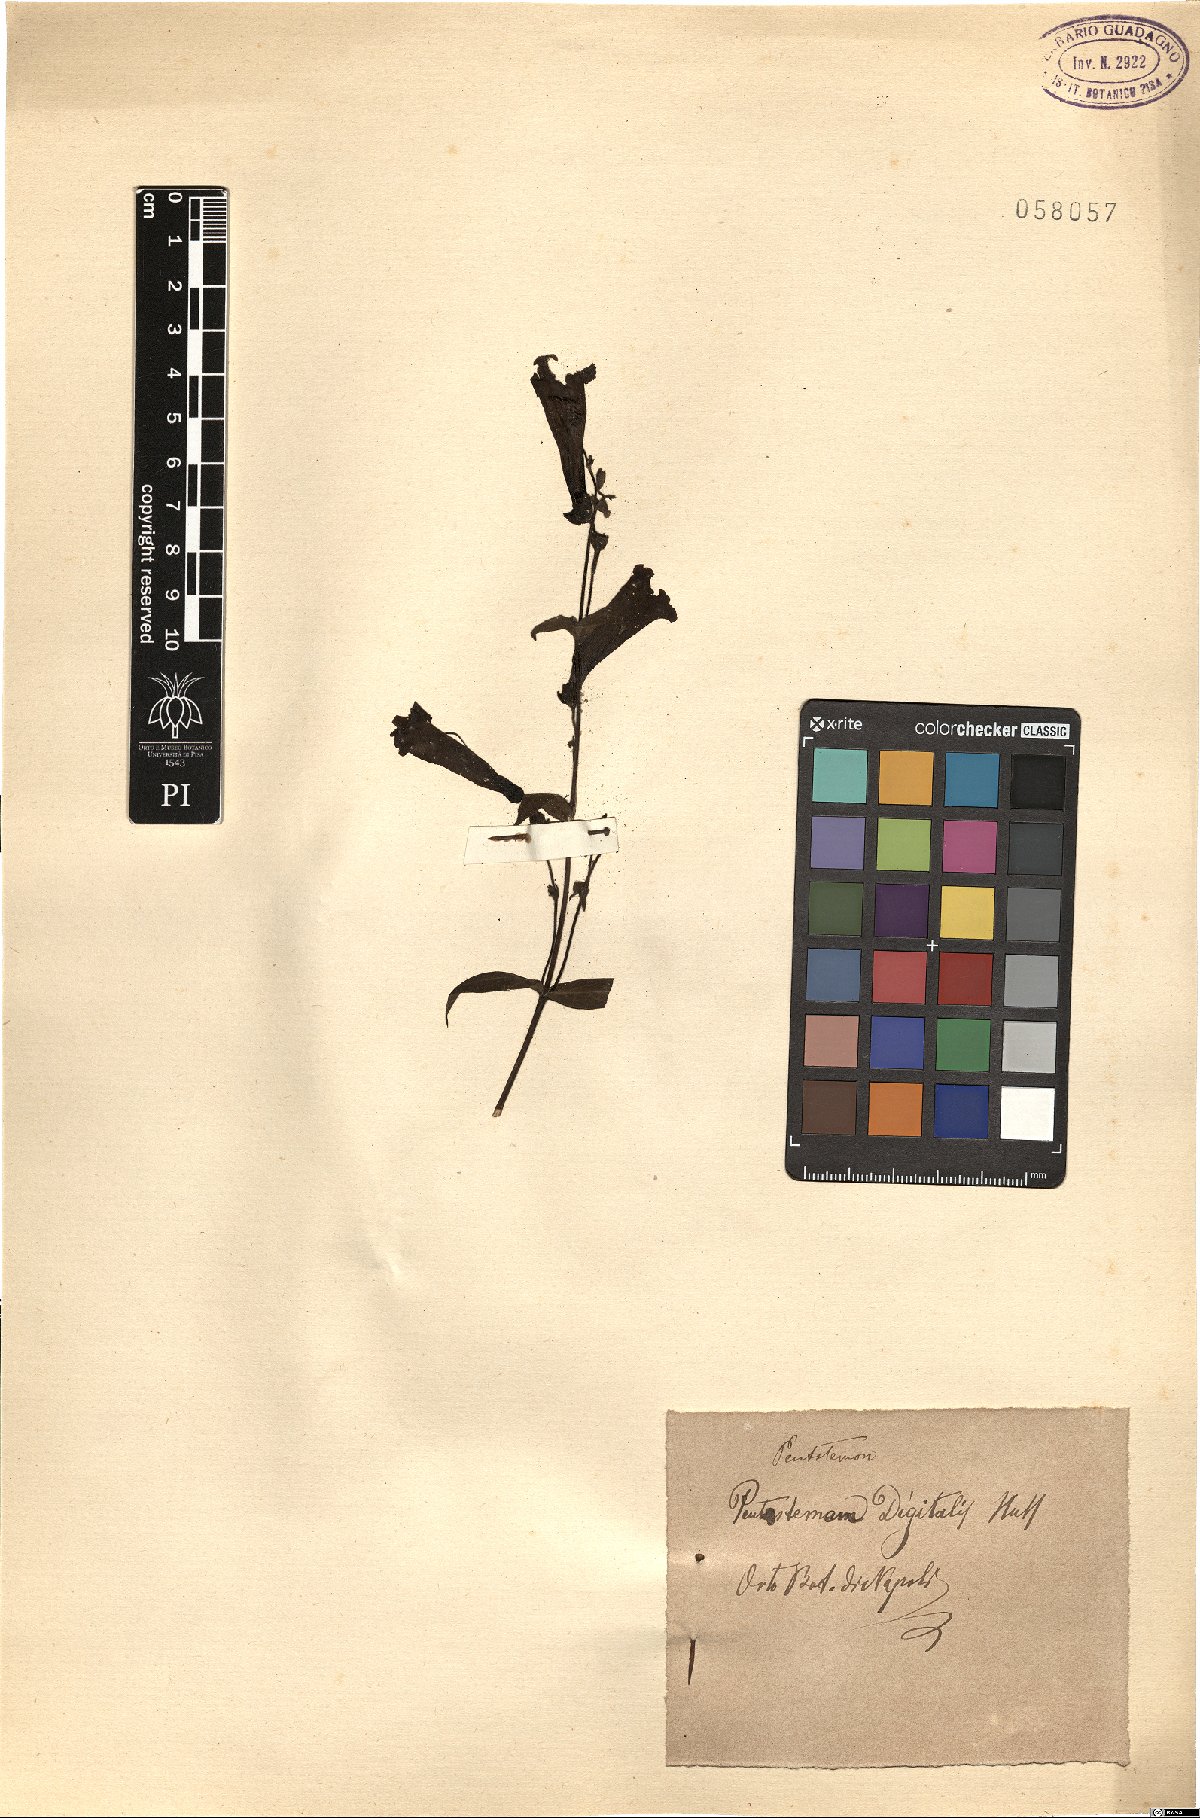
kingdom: Plantae
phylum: Tracheophyta
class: Magnoliopsida
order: Lamiales
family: Plantaginaceae
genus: Penstemon
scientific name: Penstemon digitalis
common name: Foxglove beardtongue
